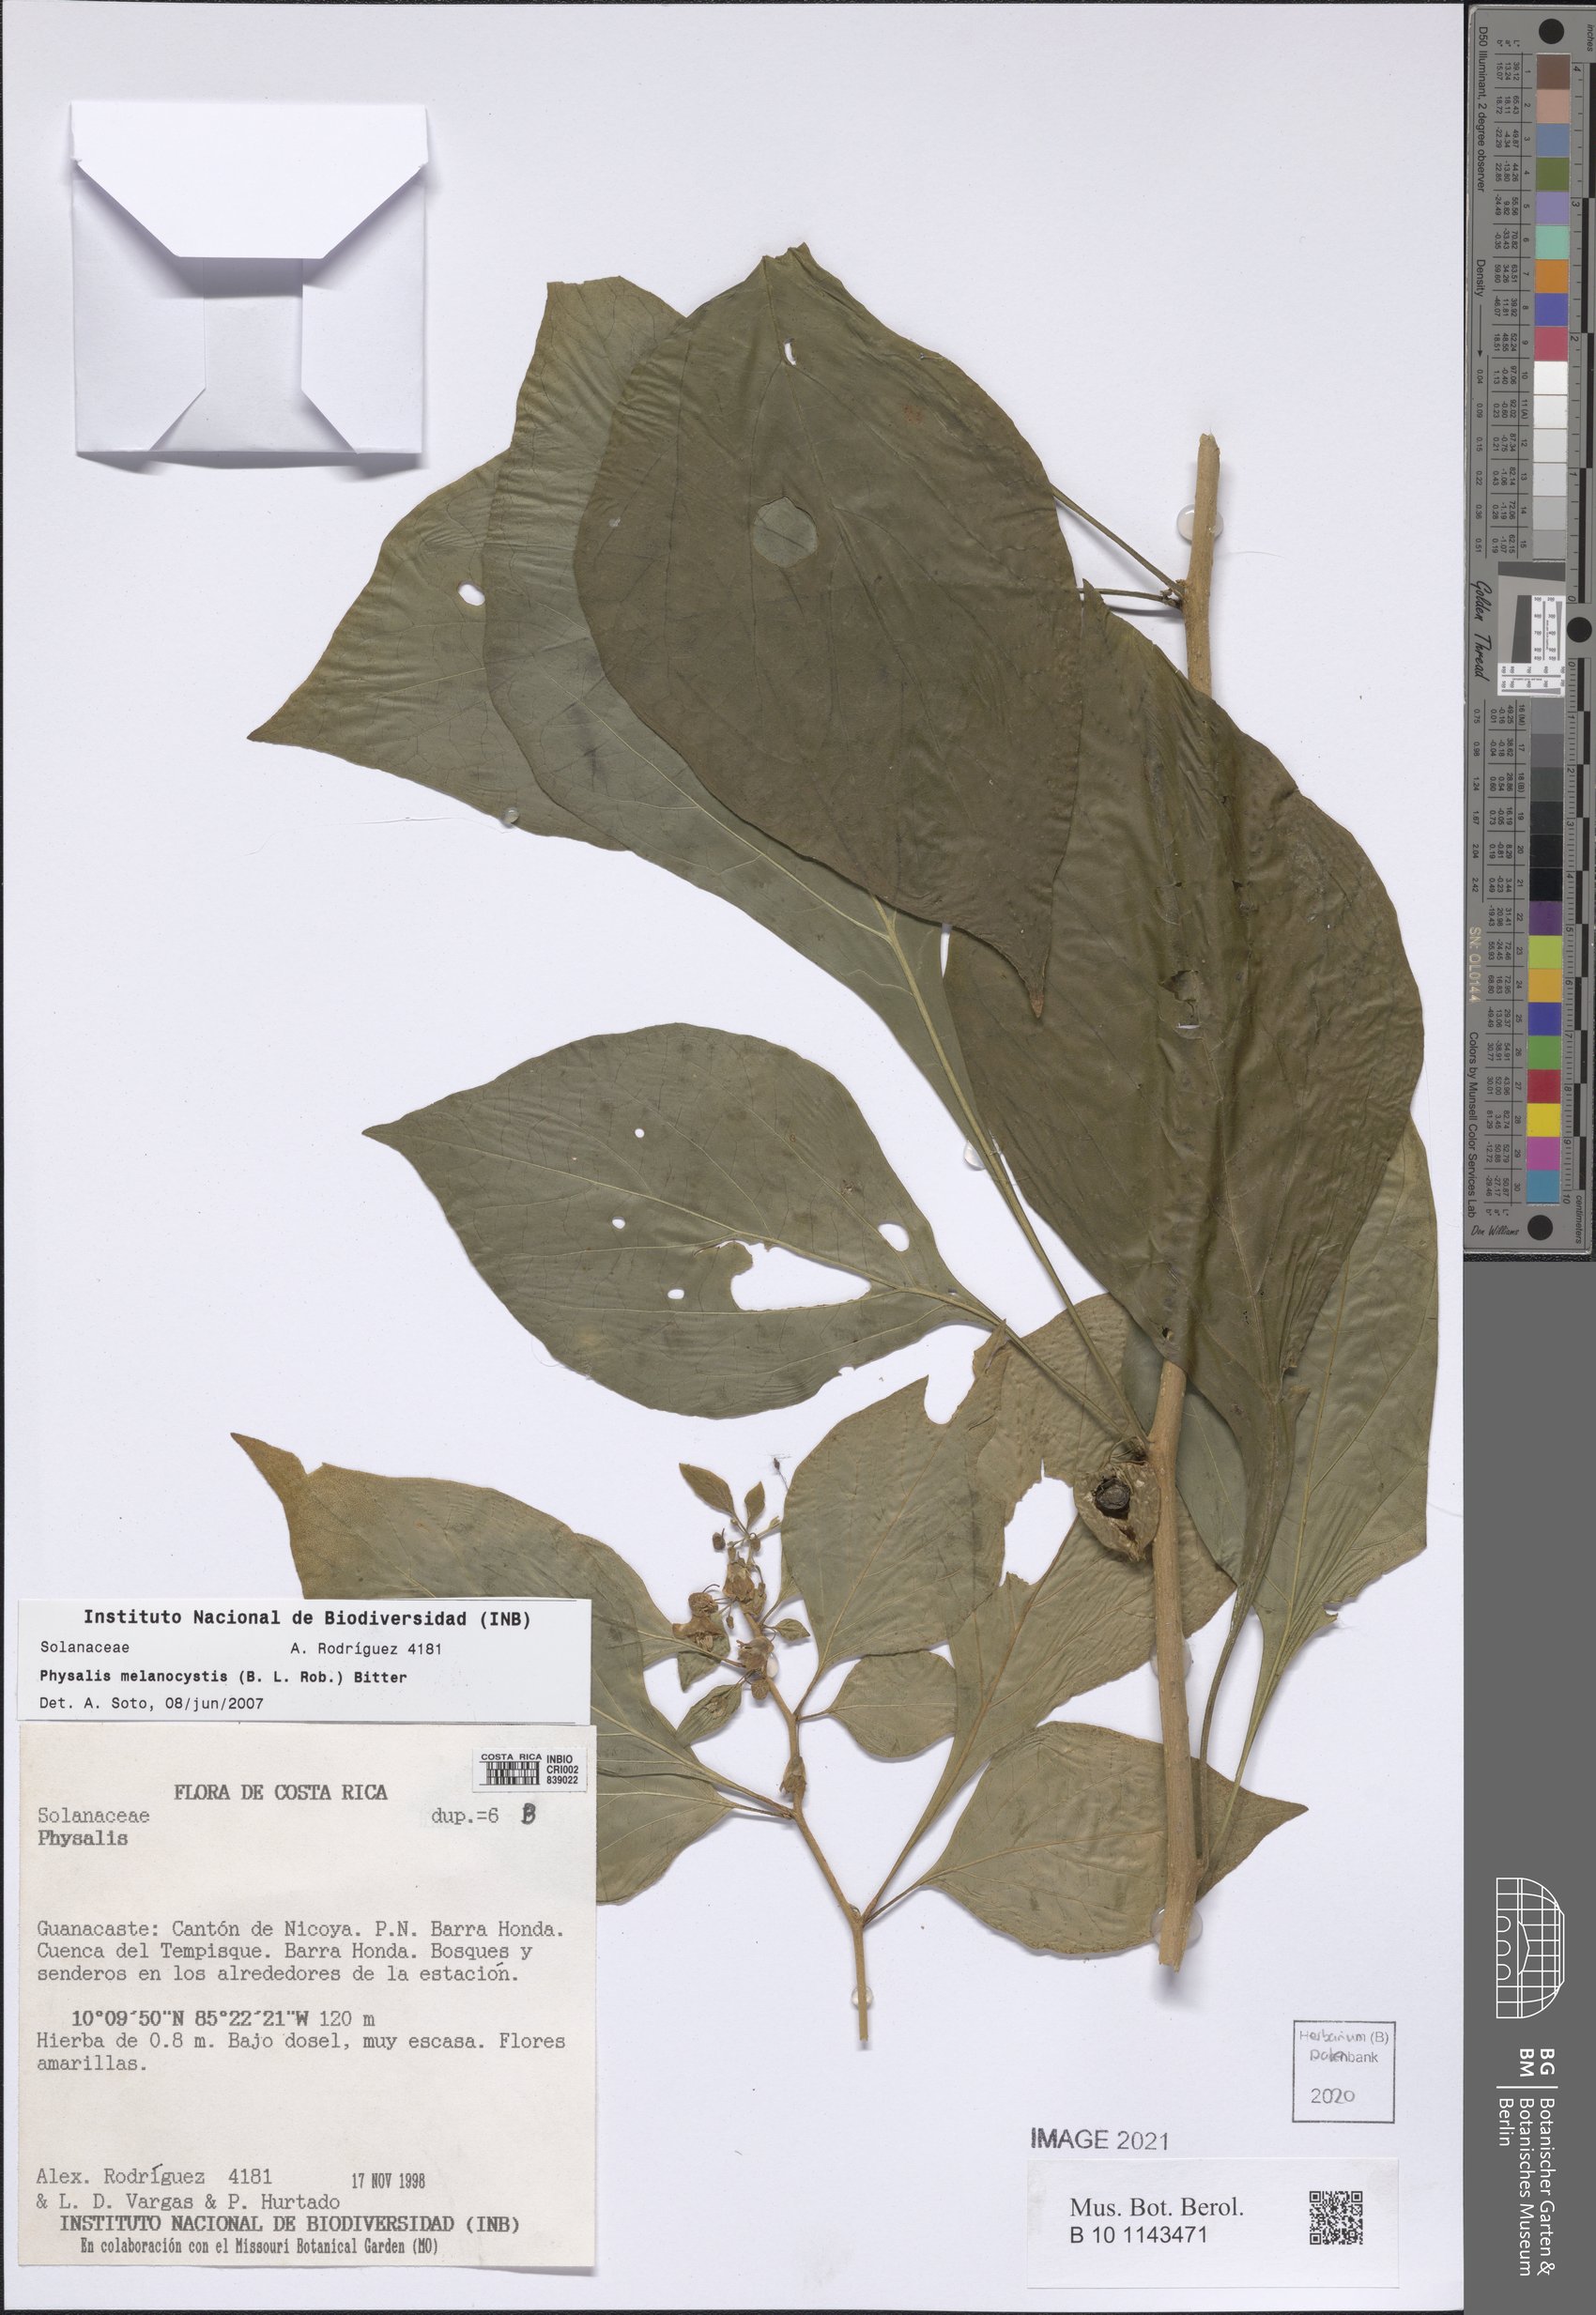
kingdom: Plantae
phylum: Tracheophyta
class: Magnoliopsida
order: Solanales
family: Solanaceae
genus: Physalis
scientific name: Physalis melanocystis
